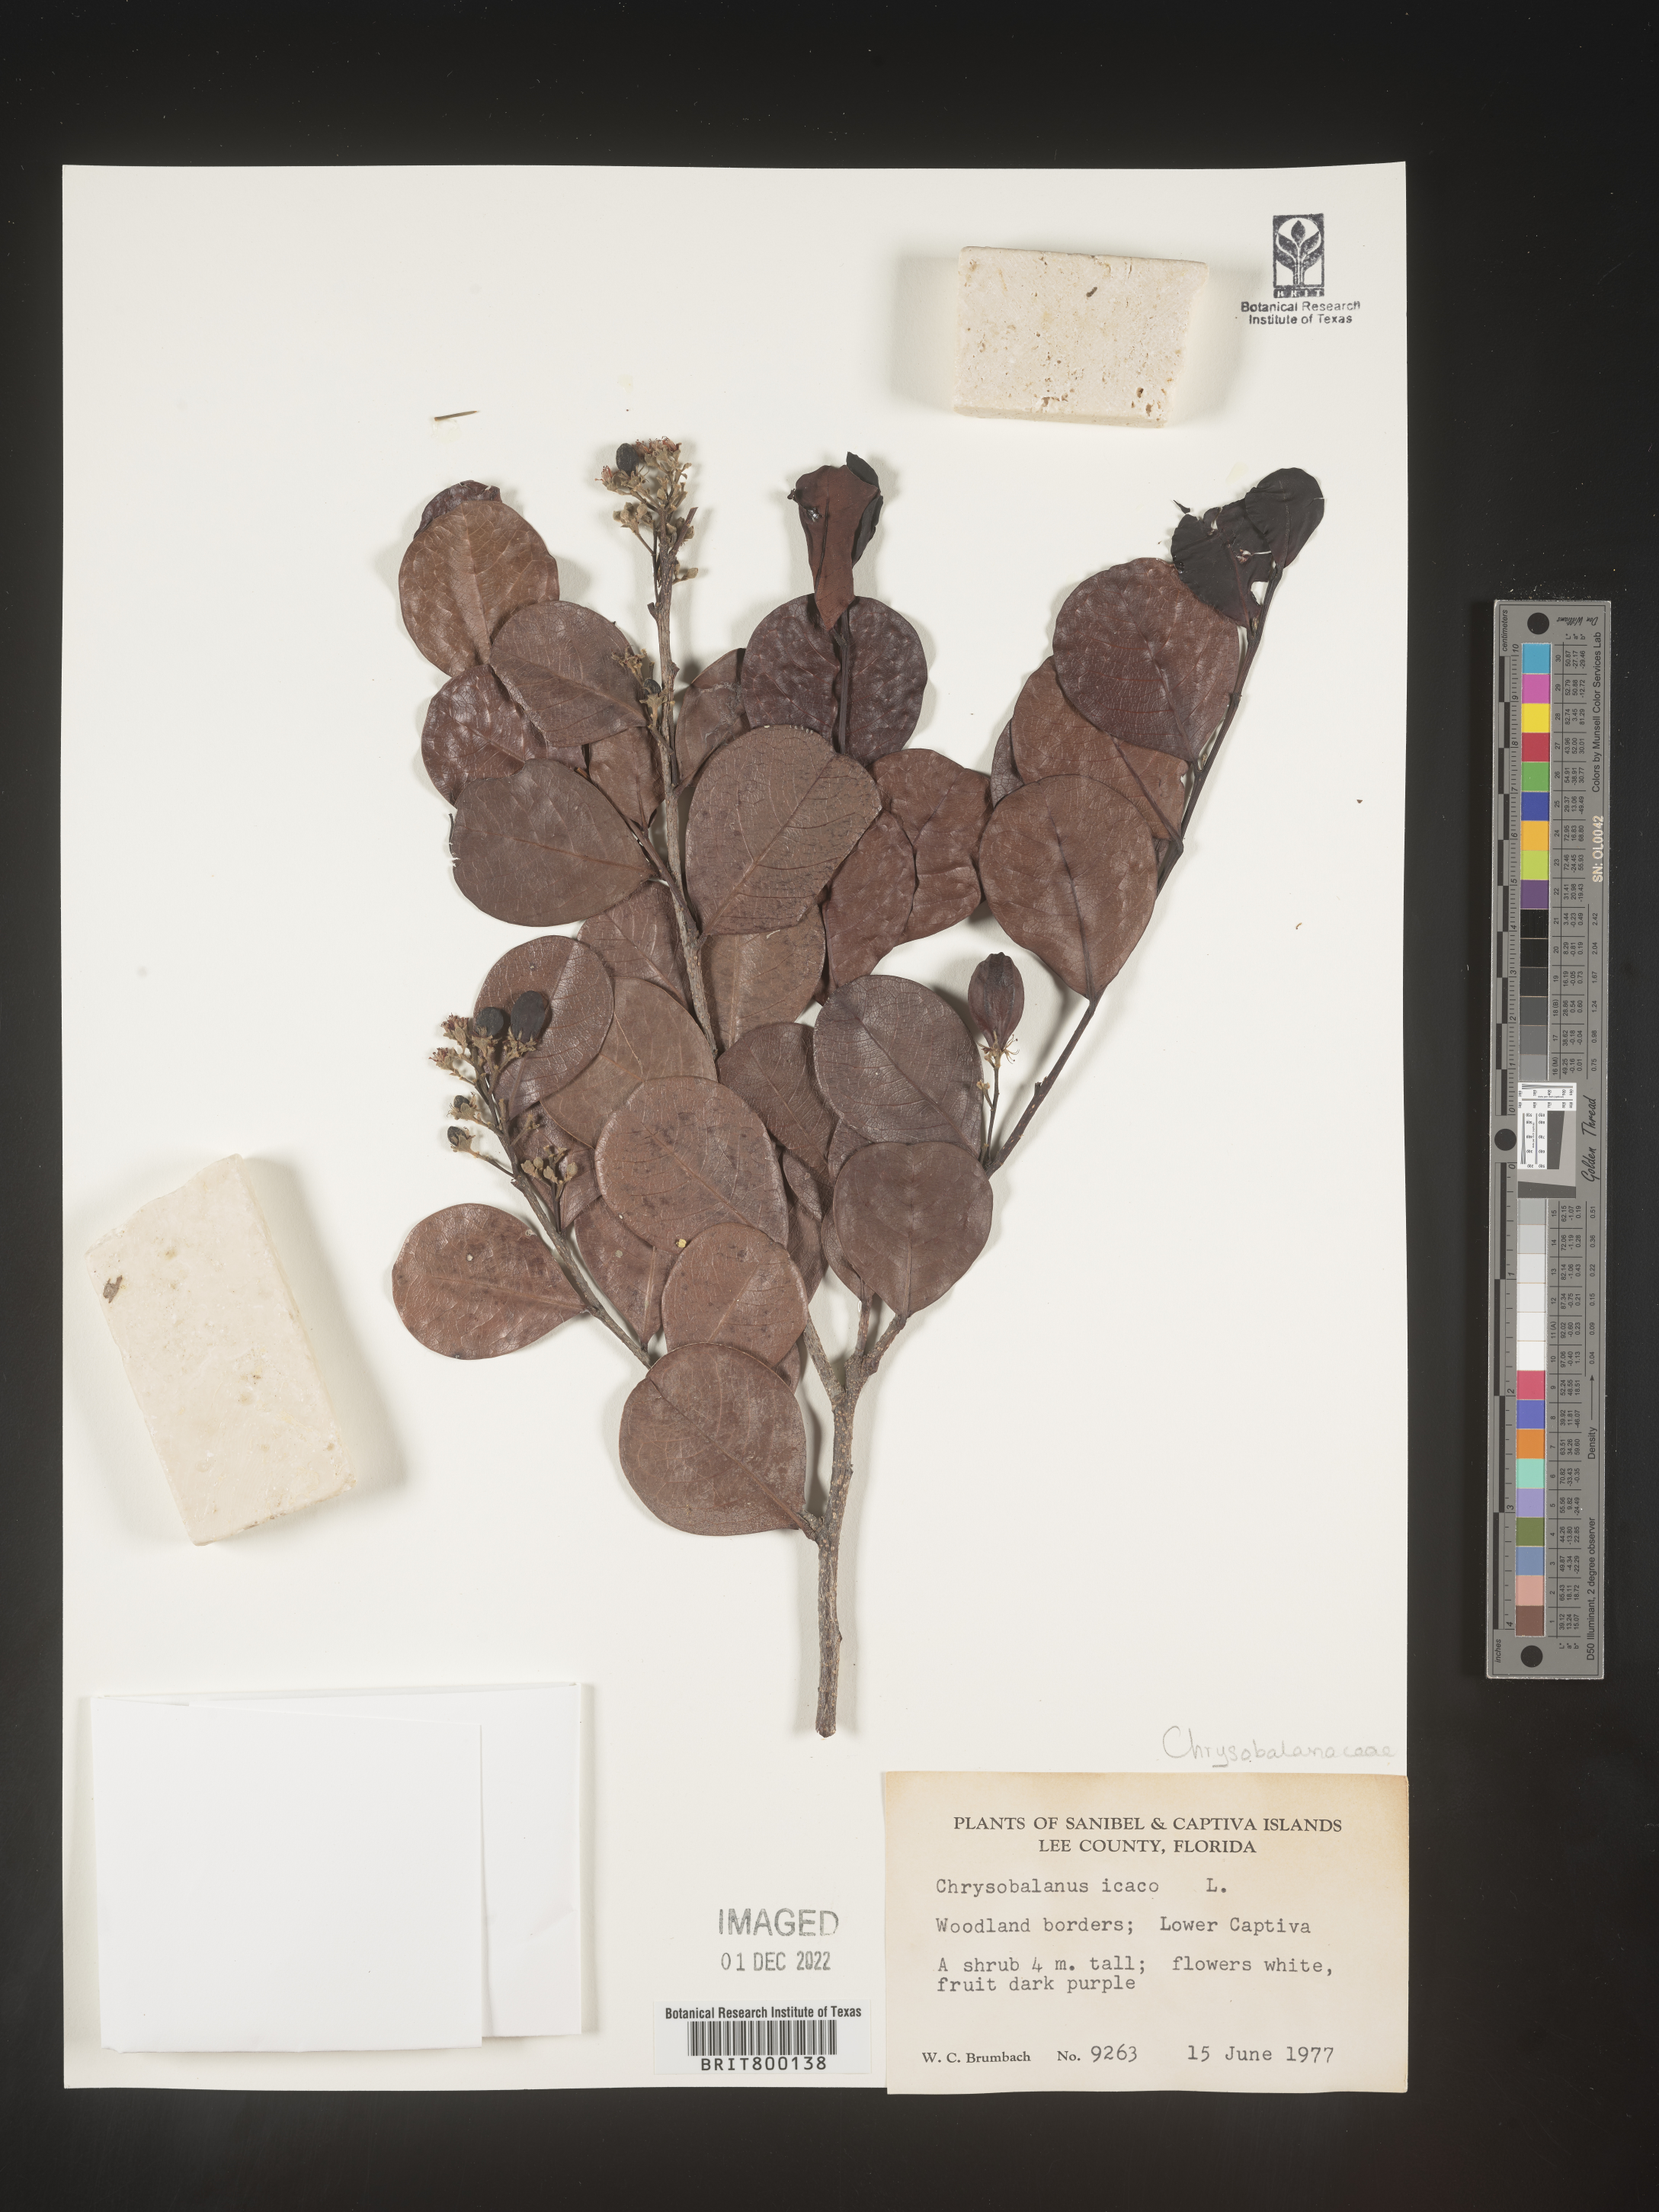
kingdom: Plantae
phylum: Tracheophyta
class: Magnoliopsida
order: Malpighiales
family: Chrysobalanaceae
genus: Chrysobalanus
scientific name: Chrysobalanus icaco
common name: Coco plum
